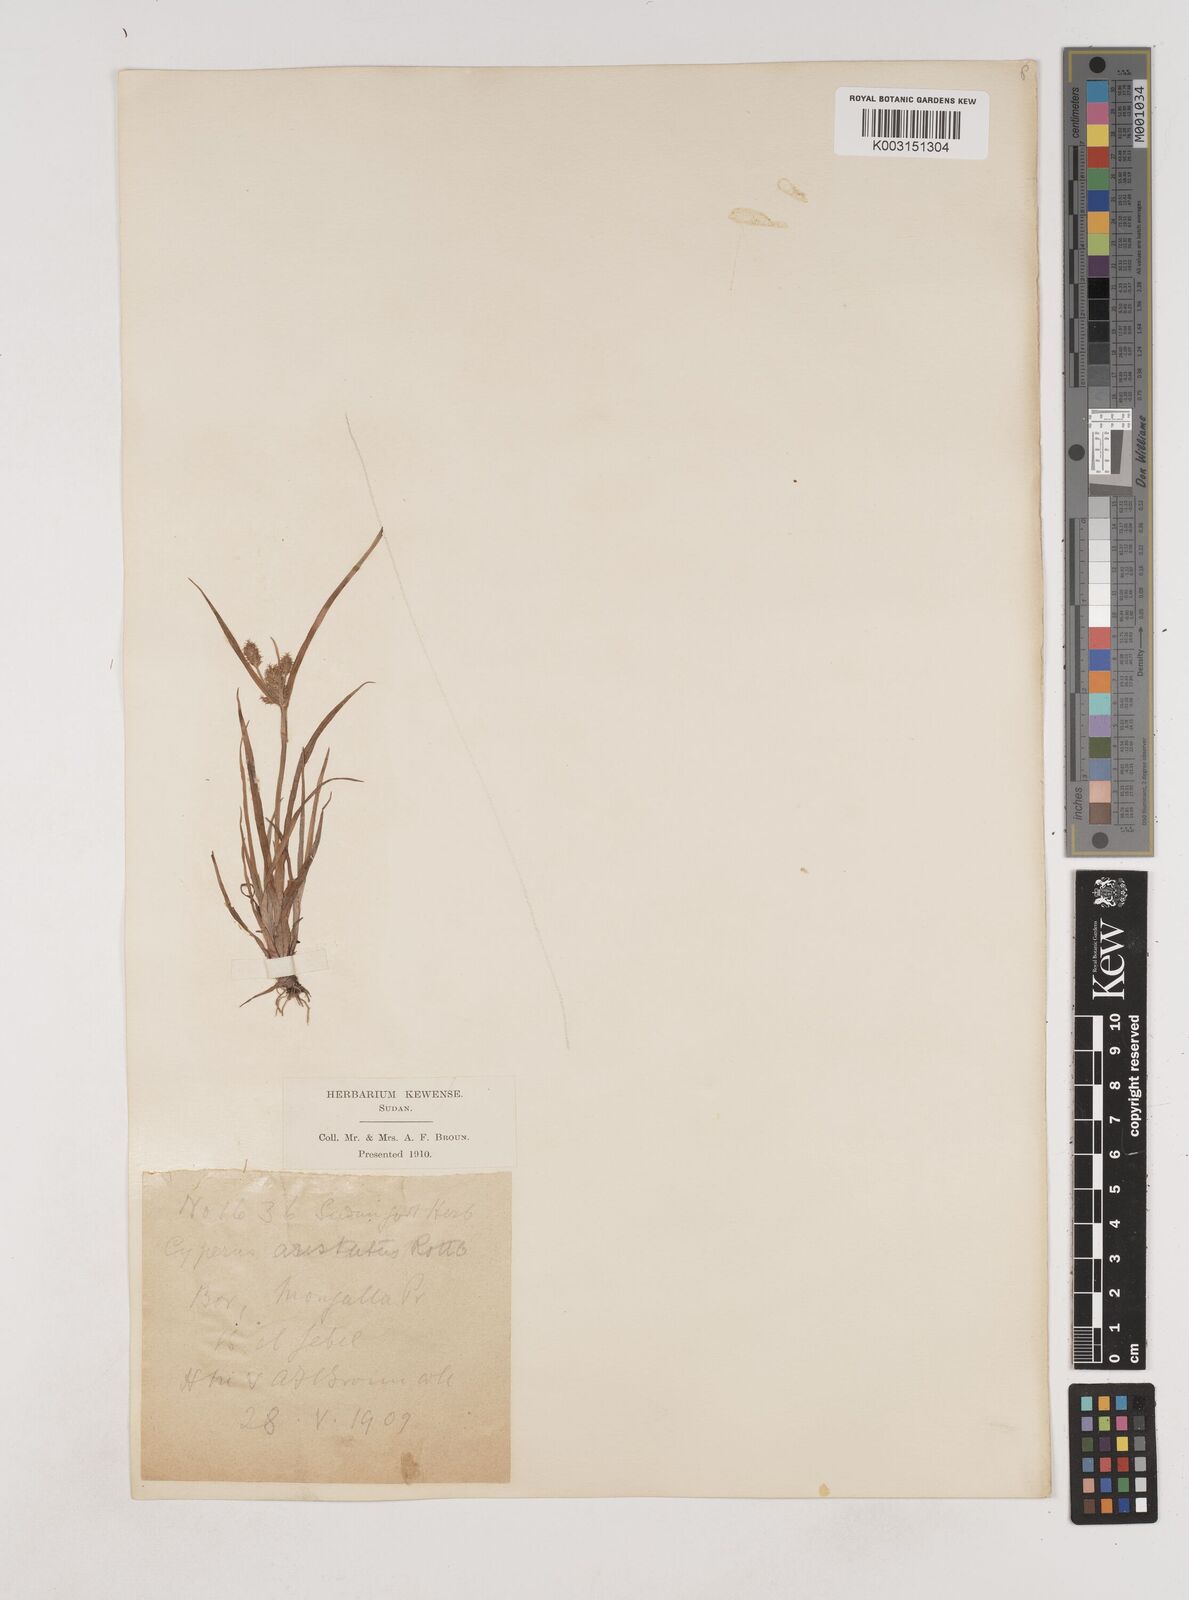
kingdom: Plantae
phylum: Tracheophyta
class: Liliopsida
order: Poales
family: Cyperaceae
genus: Cyperus
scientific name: Cyperus squarrosus
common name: Awned cyperus
